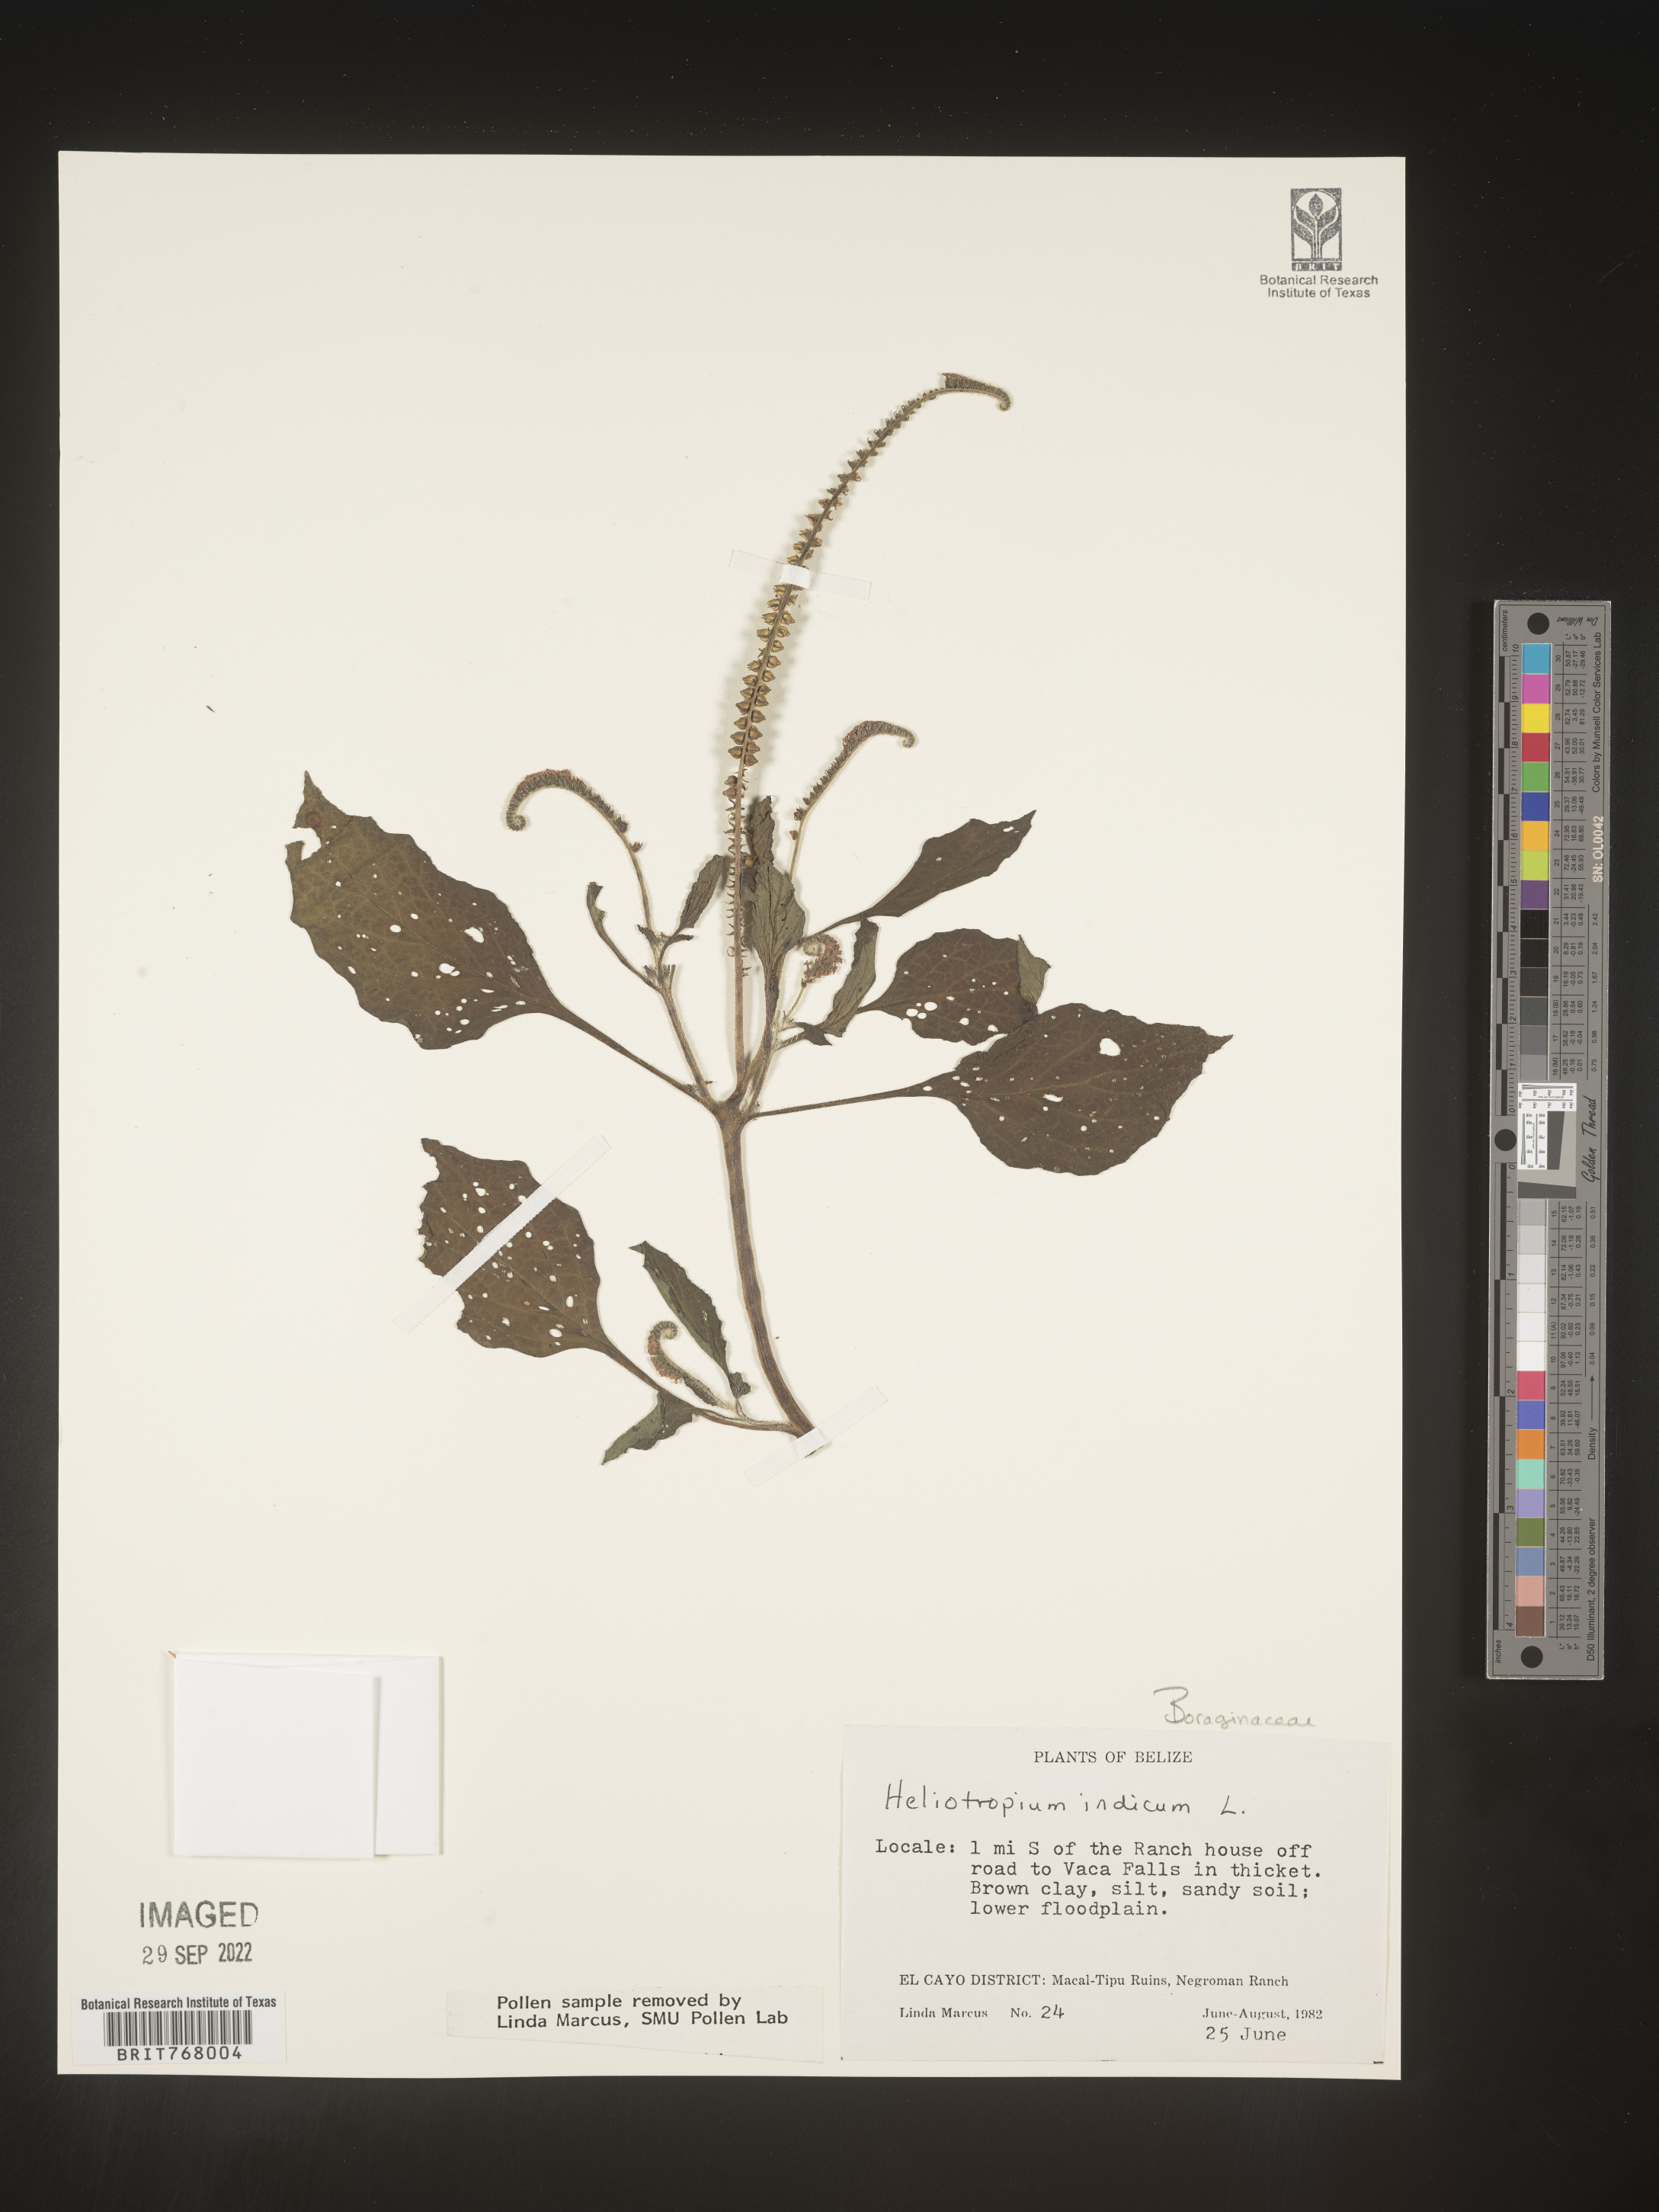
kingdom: Plantae
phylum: Tracheophyta
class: Magnoliopsida
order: Boraginales
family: Heliotropiaceae
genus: Heliotropium
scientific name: Heliotropium
